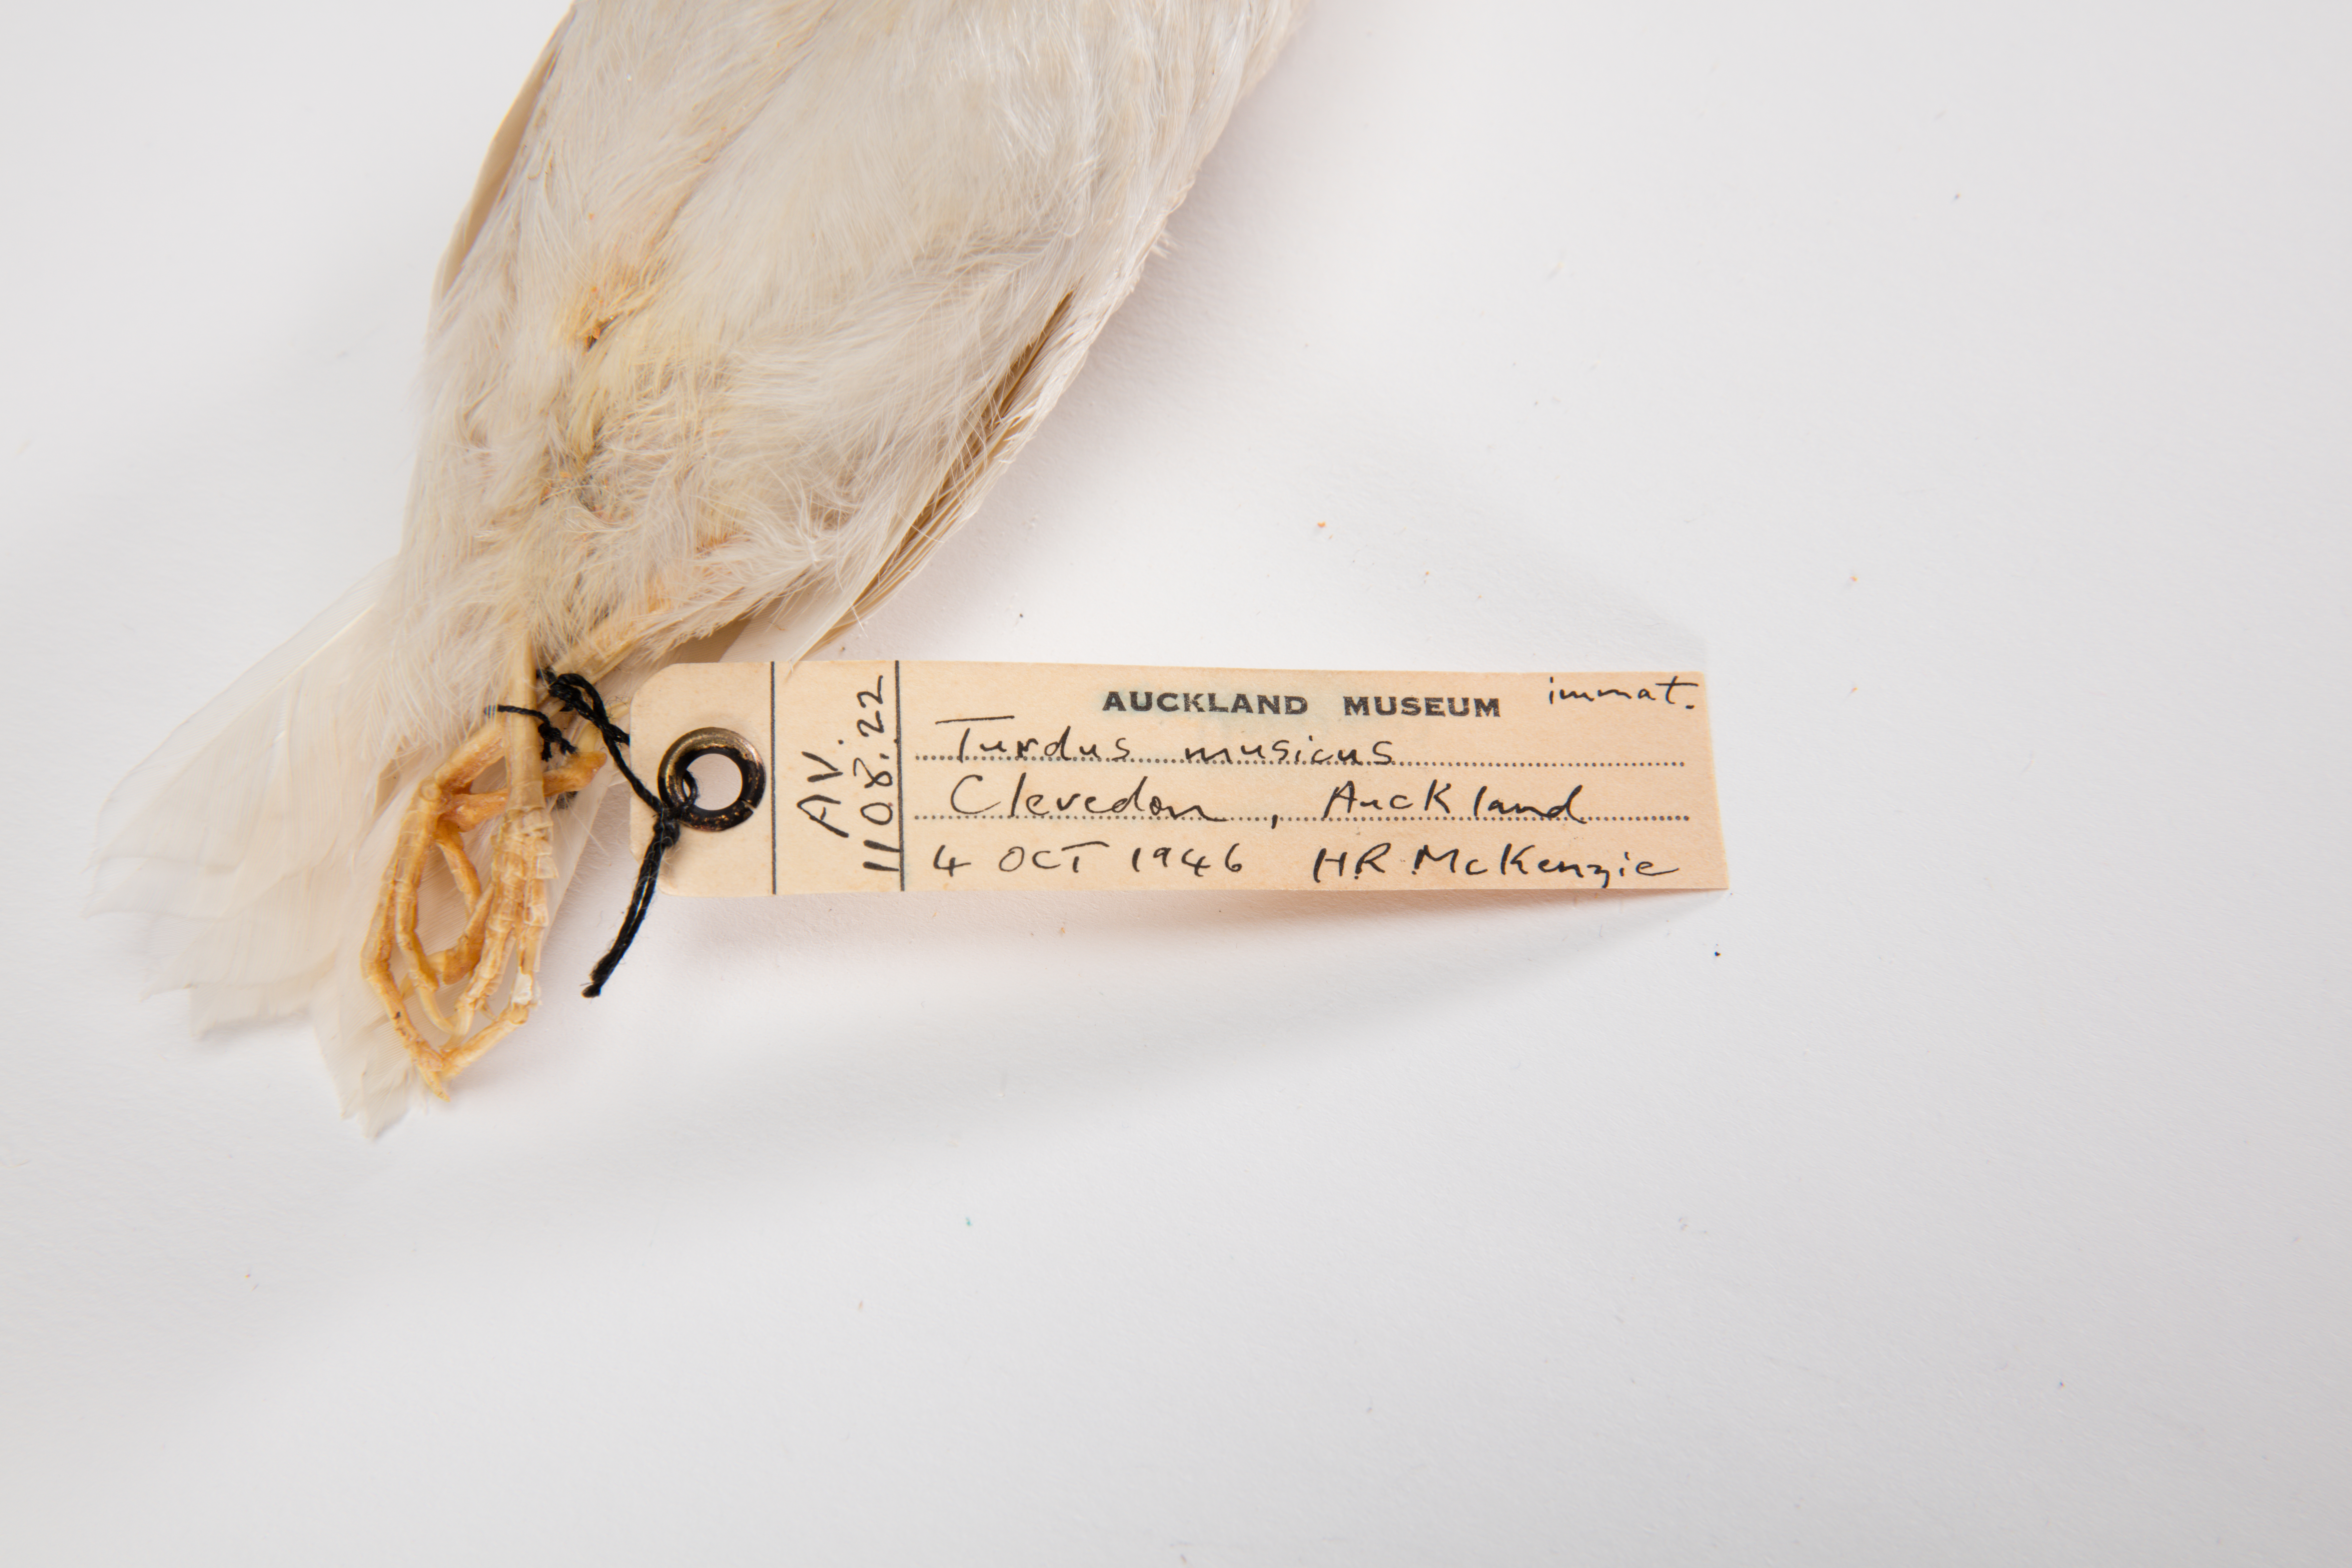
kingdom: Animalia
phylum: Chordata
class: Aves
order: Passeriformes
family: Turdidae
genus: Turdus
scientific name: Turdus philomelos
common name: Song thrush
